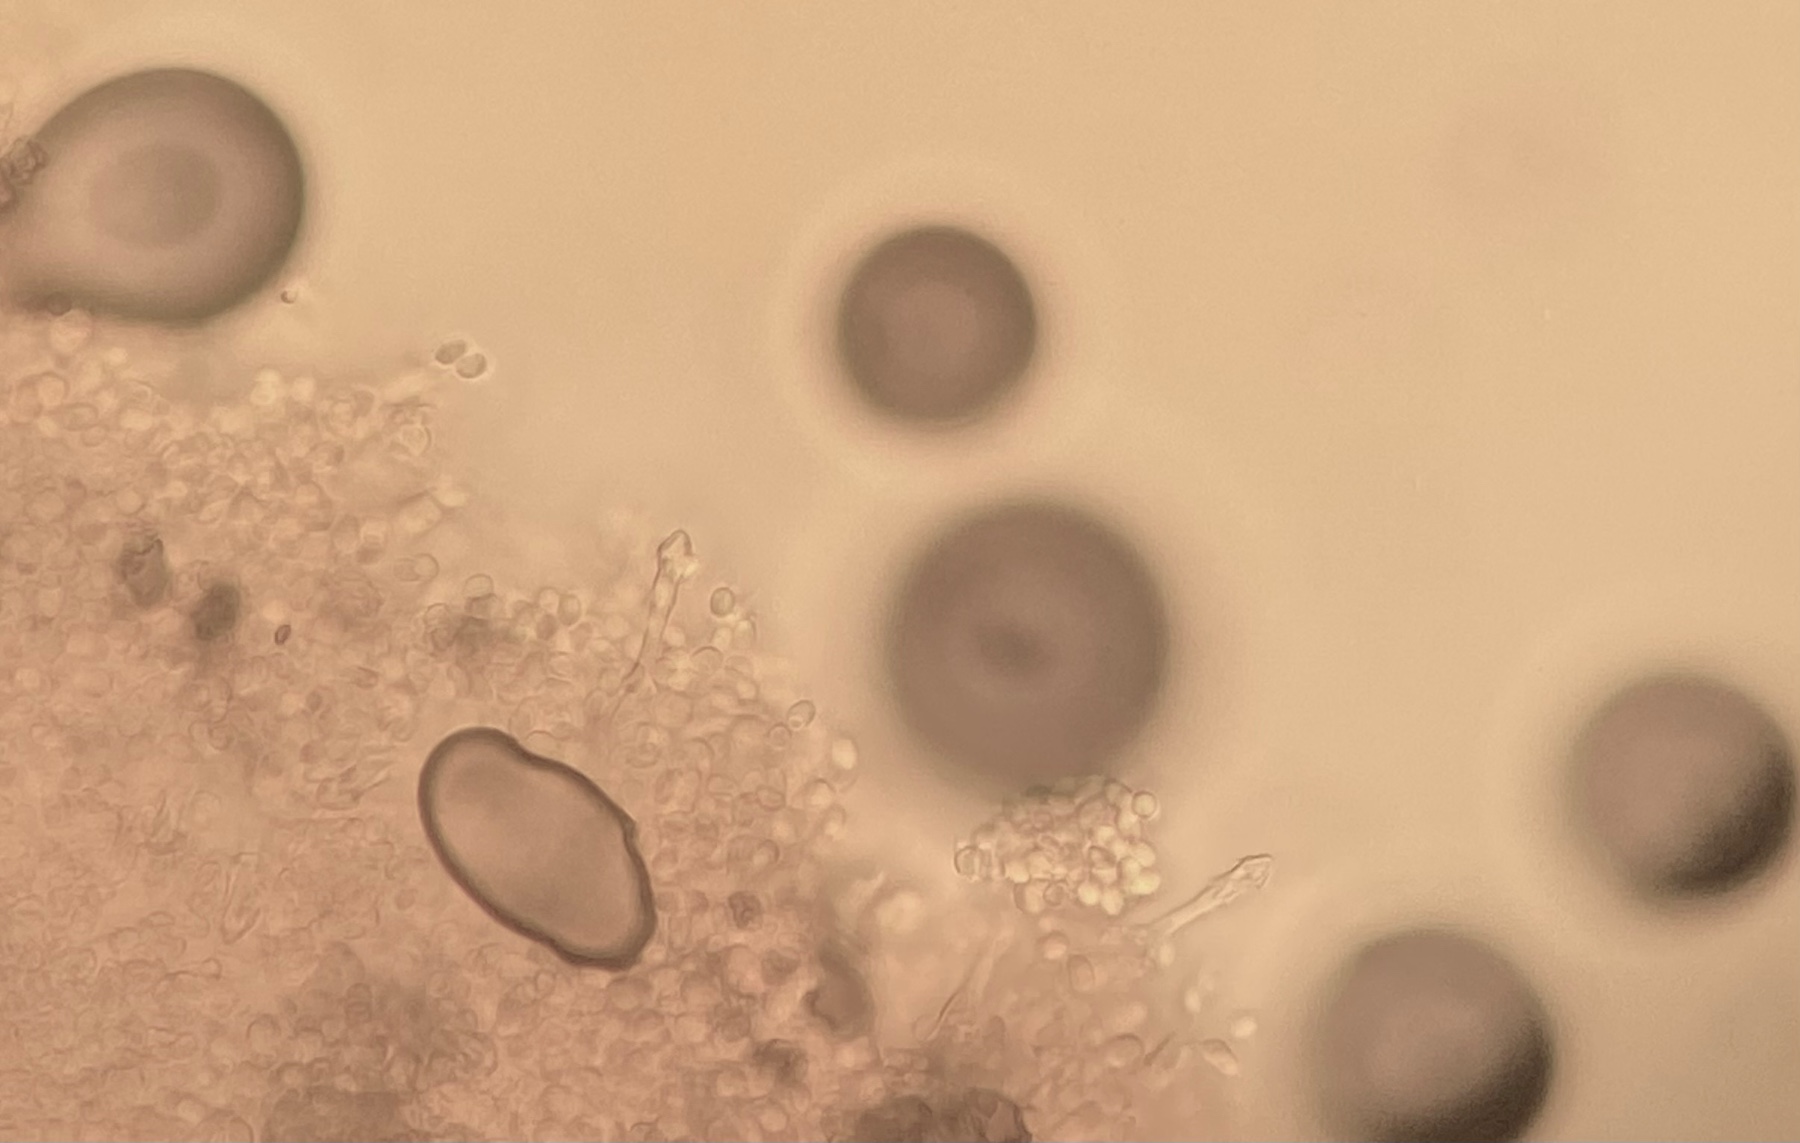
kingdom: Fungi
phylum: Basidiomycota
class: Agaricomycetes
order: Agaricales
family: Agaricaceae
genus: Cystodermella
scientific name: Cystodermella cinnabarina
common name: cinnober-grynhat
